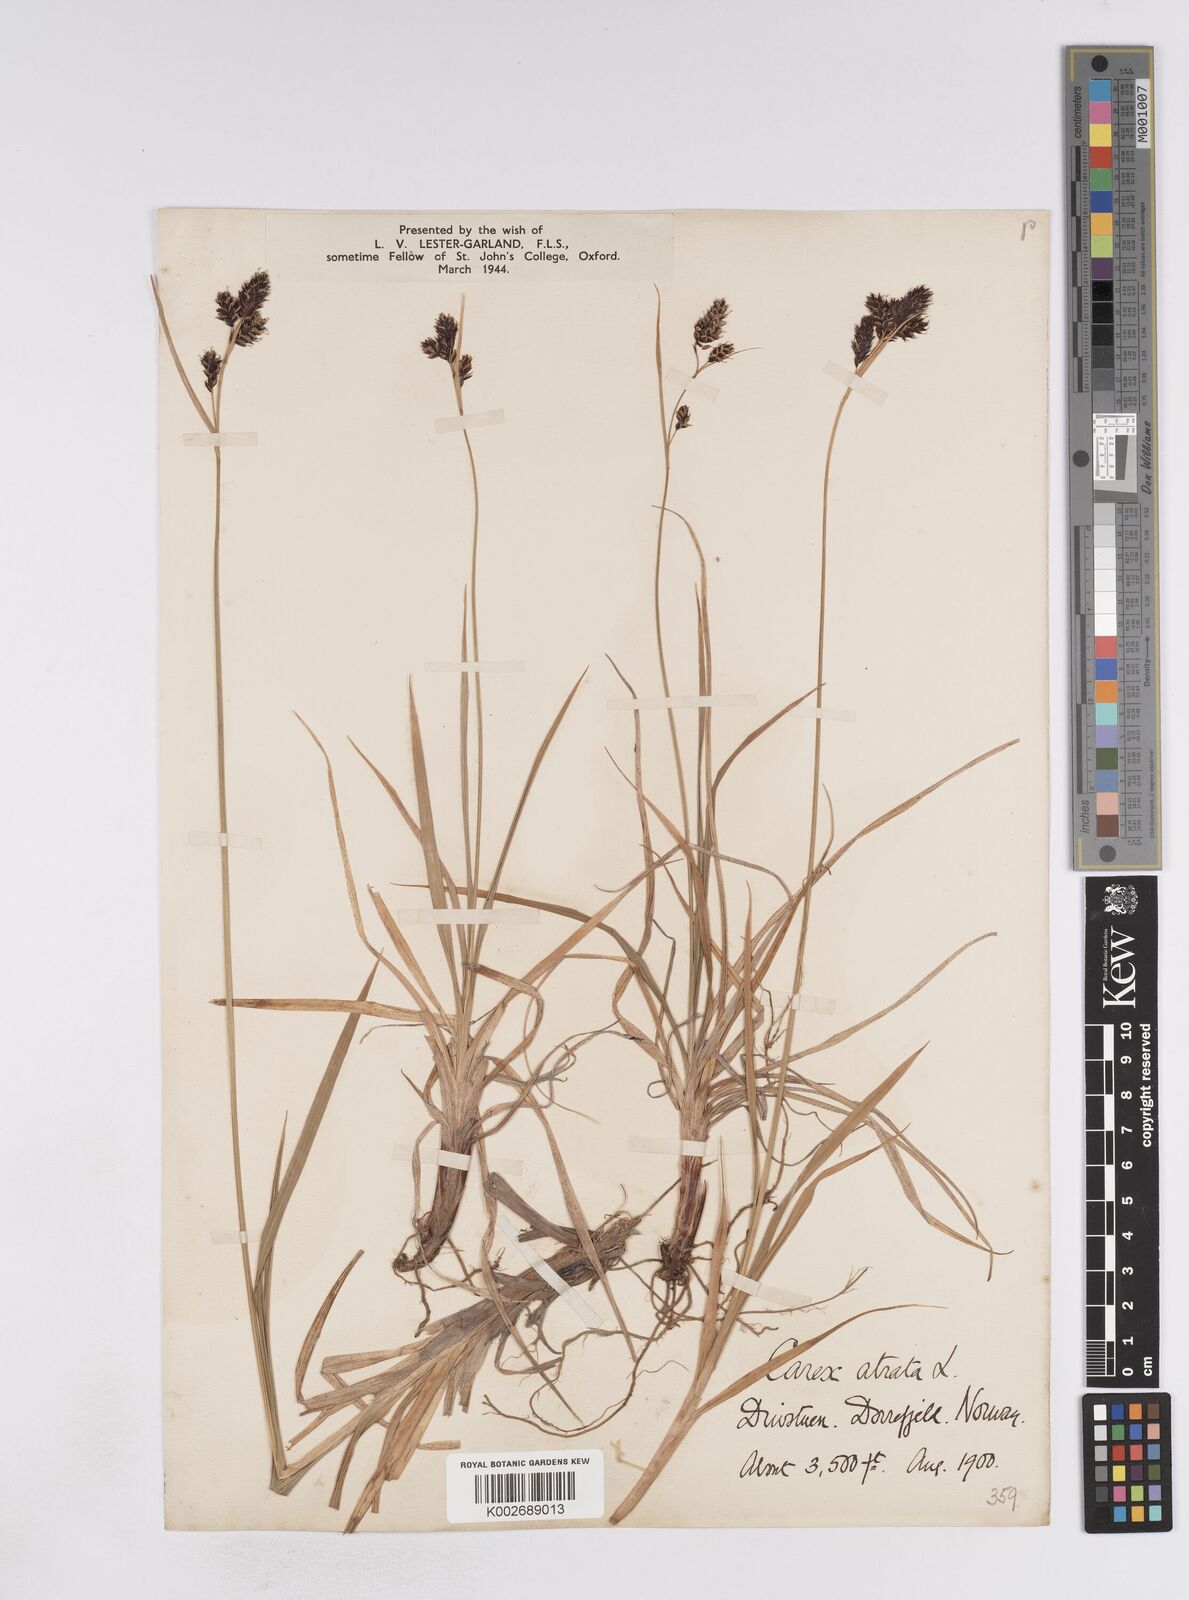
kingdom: Plantae
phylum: Tracheophyta
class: Liliopsida
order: Poales
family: Cyperaceae
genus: Carex
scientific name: Carex atrata
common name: Black alpine sedge
